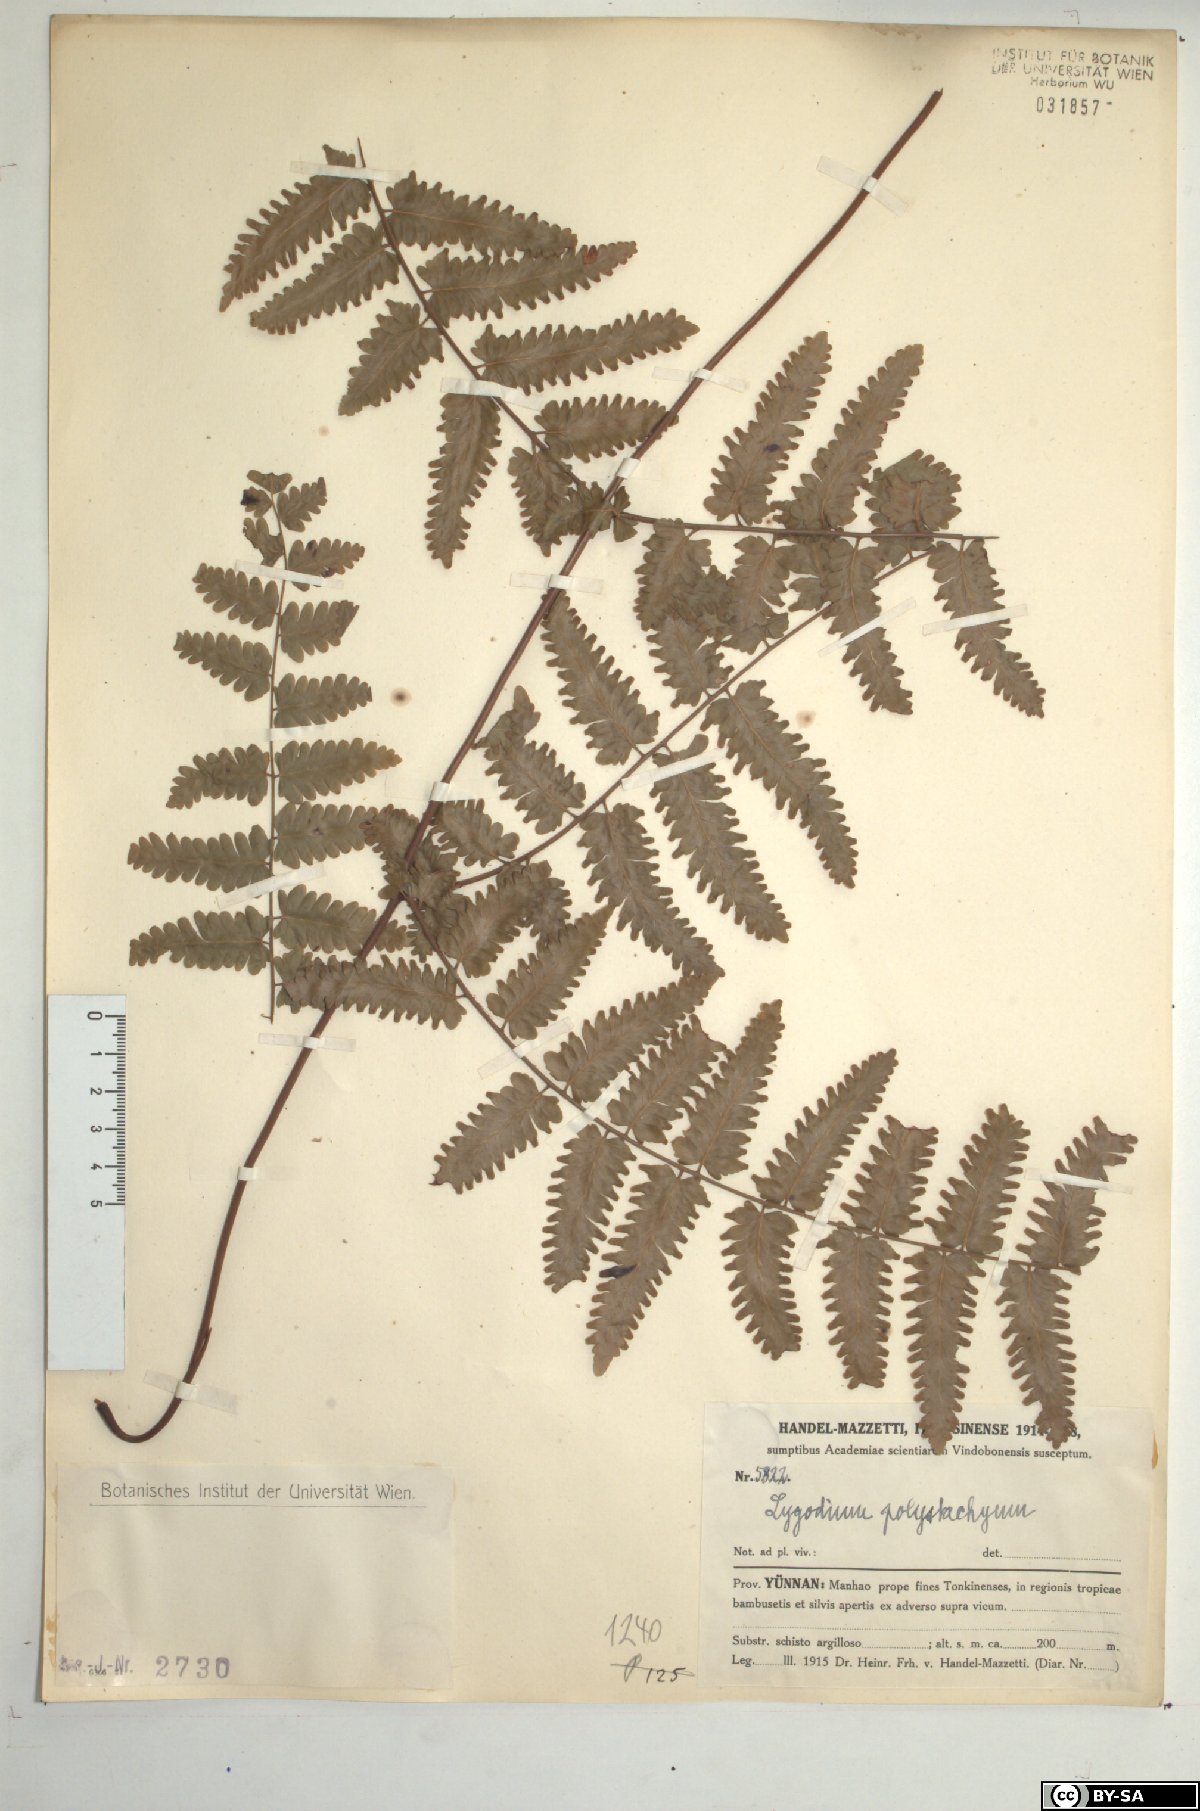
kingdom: Plantae
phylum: Tracheophyta
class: Polypodiopsida
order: Schizaeales
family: Lygodiaceae
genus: Lygodium
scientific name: Lygodium polystachyum
